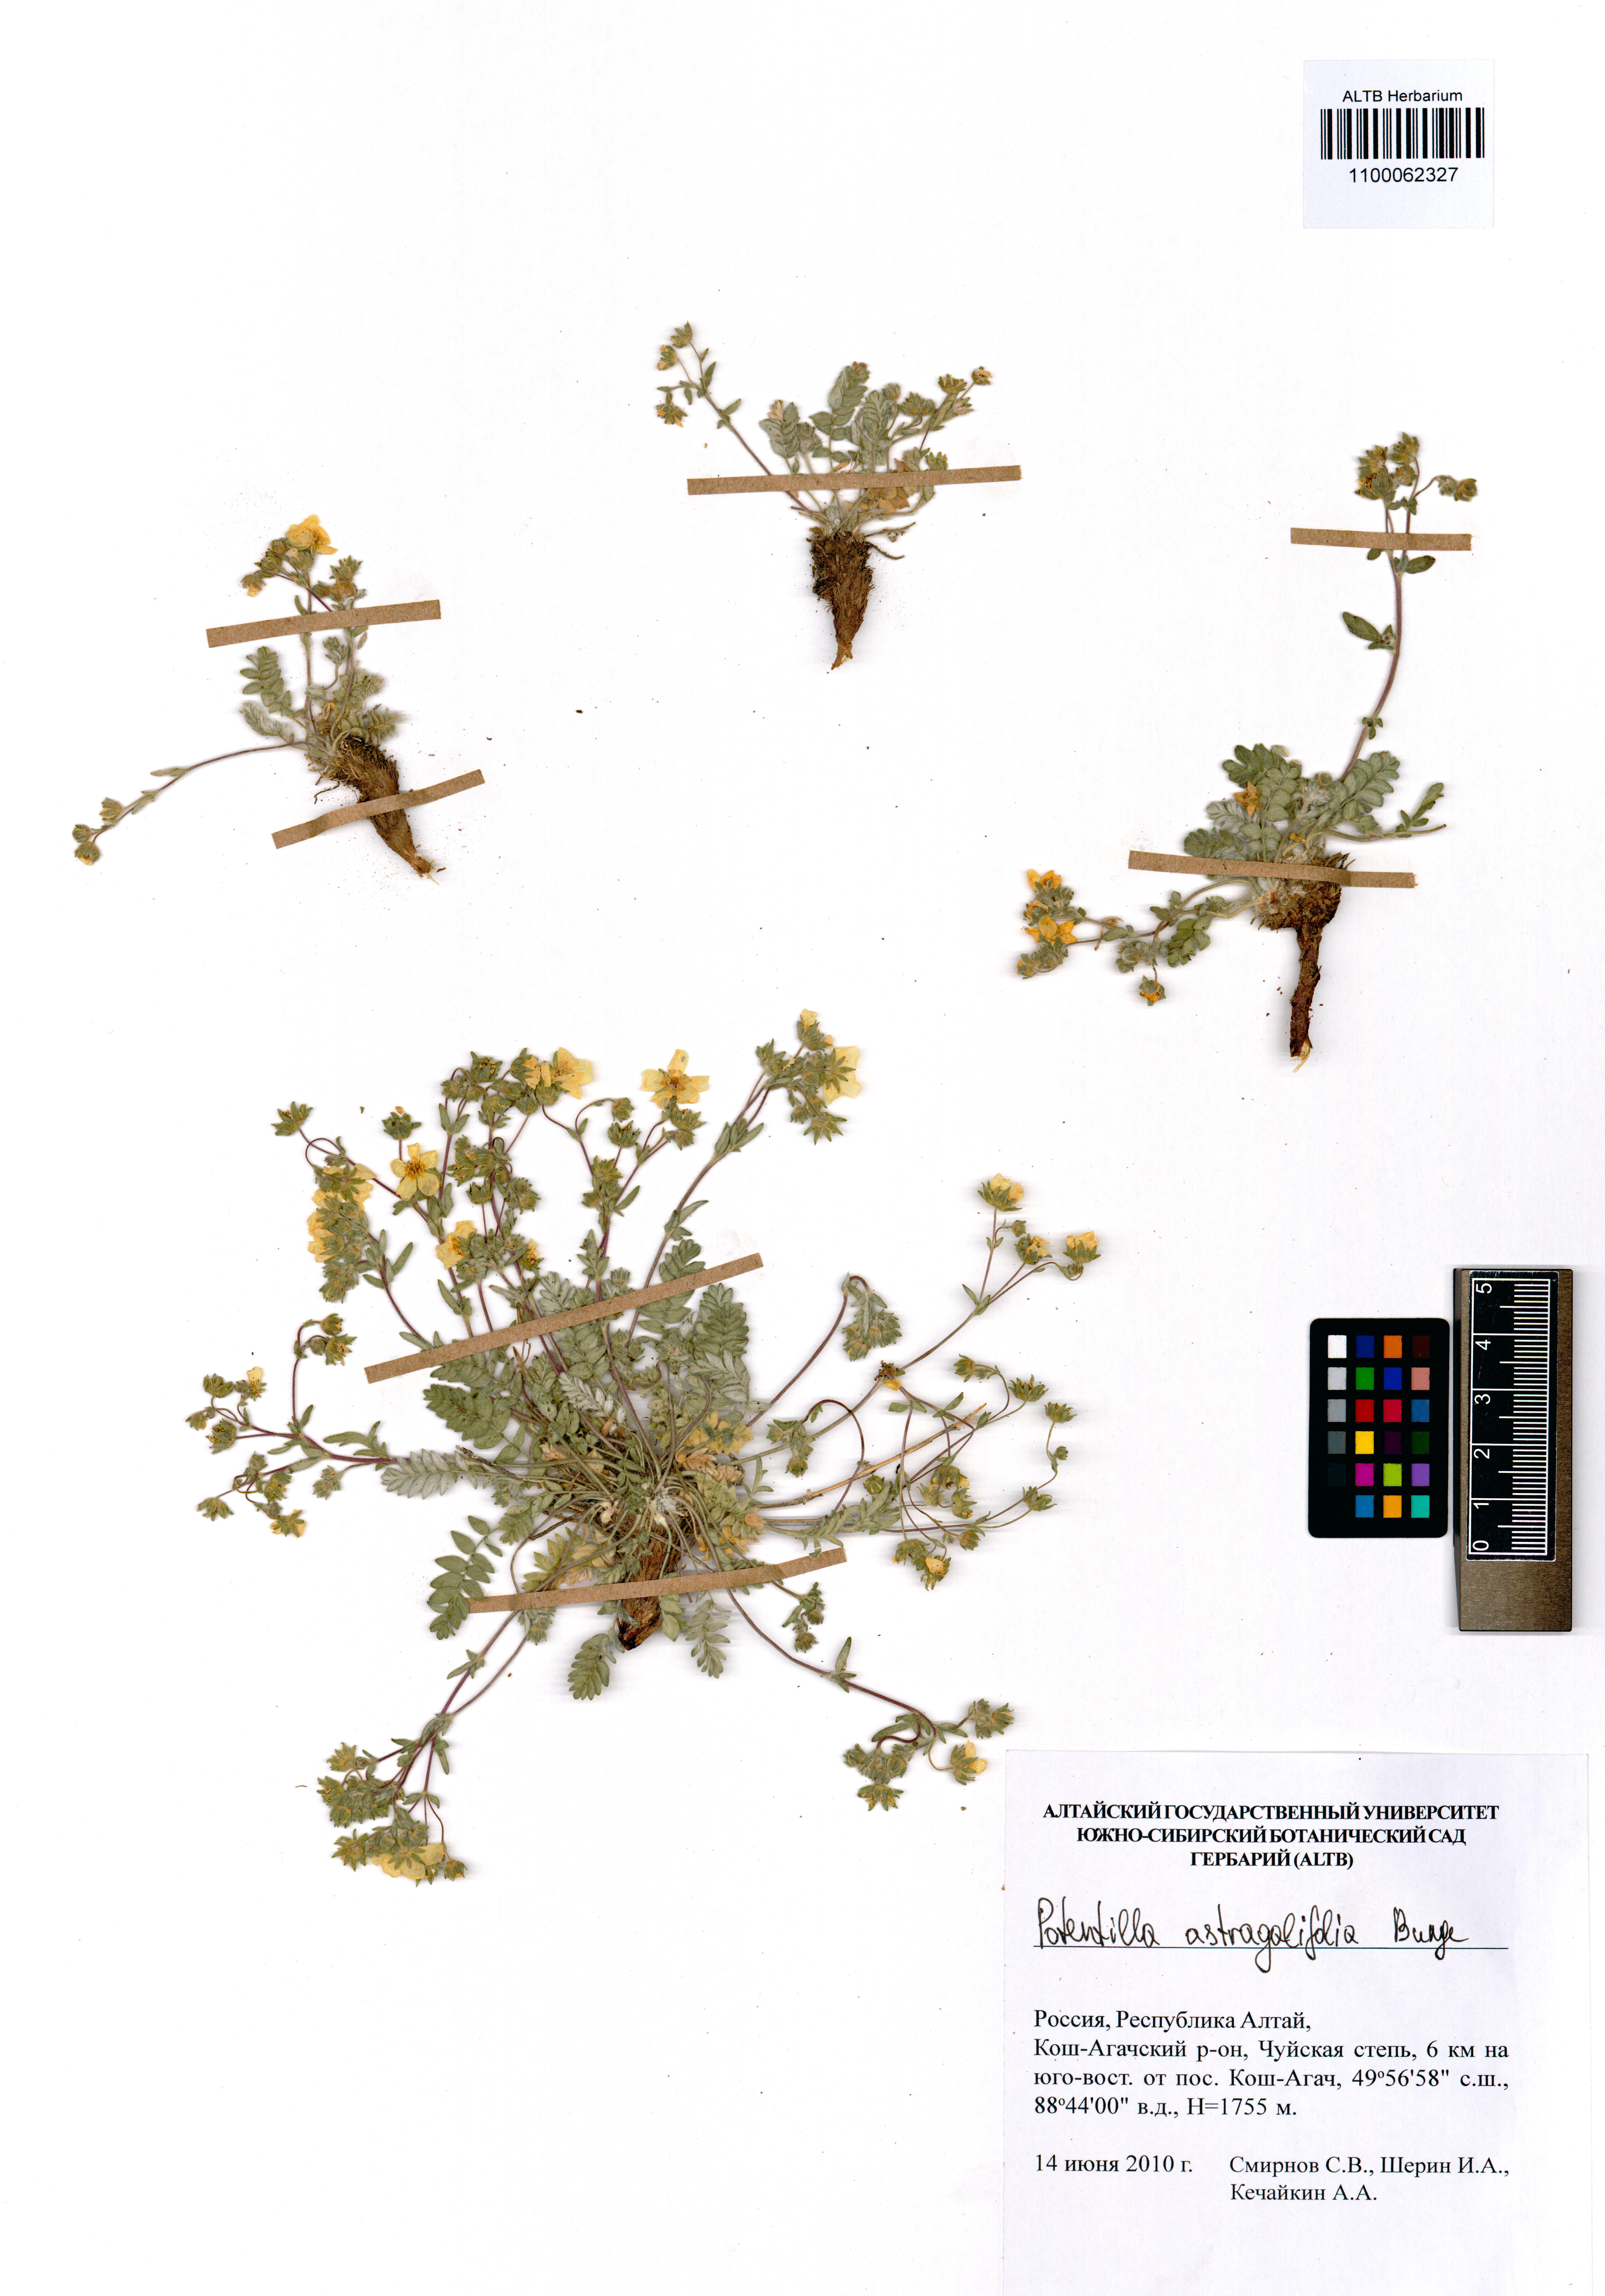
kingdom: Plantae
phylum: Tracheophyta
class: Magnoliopsida
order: Rosales
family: Rosaceae
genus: Potentilla
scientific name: Potentilla astragalifolia
